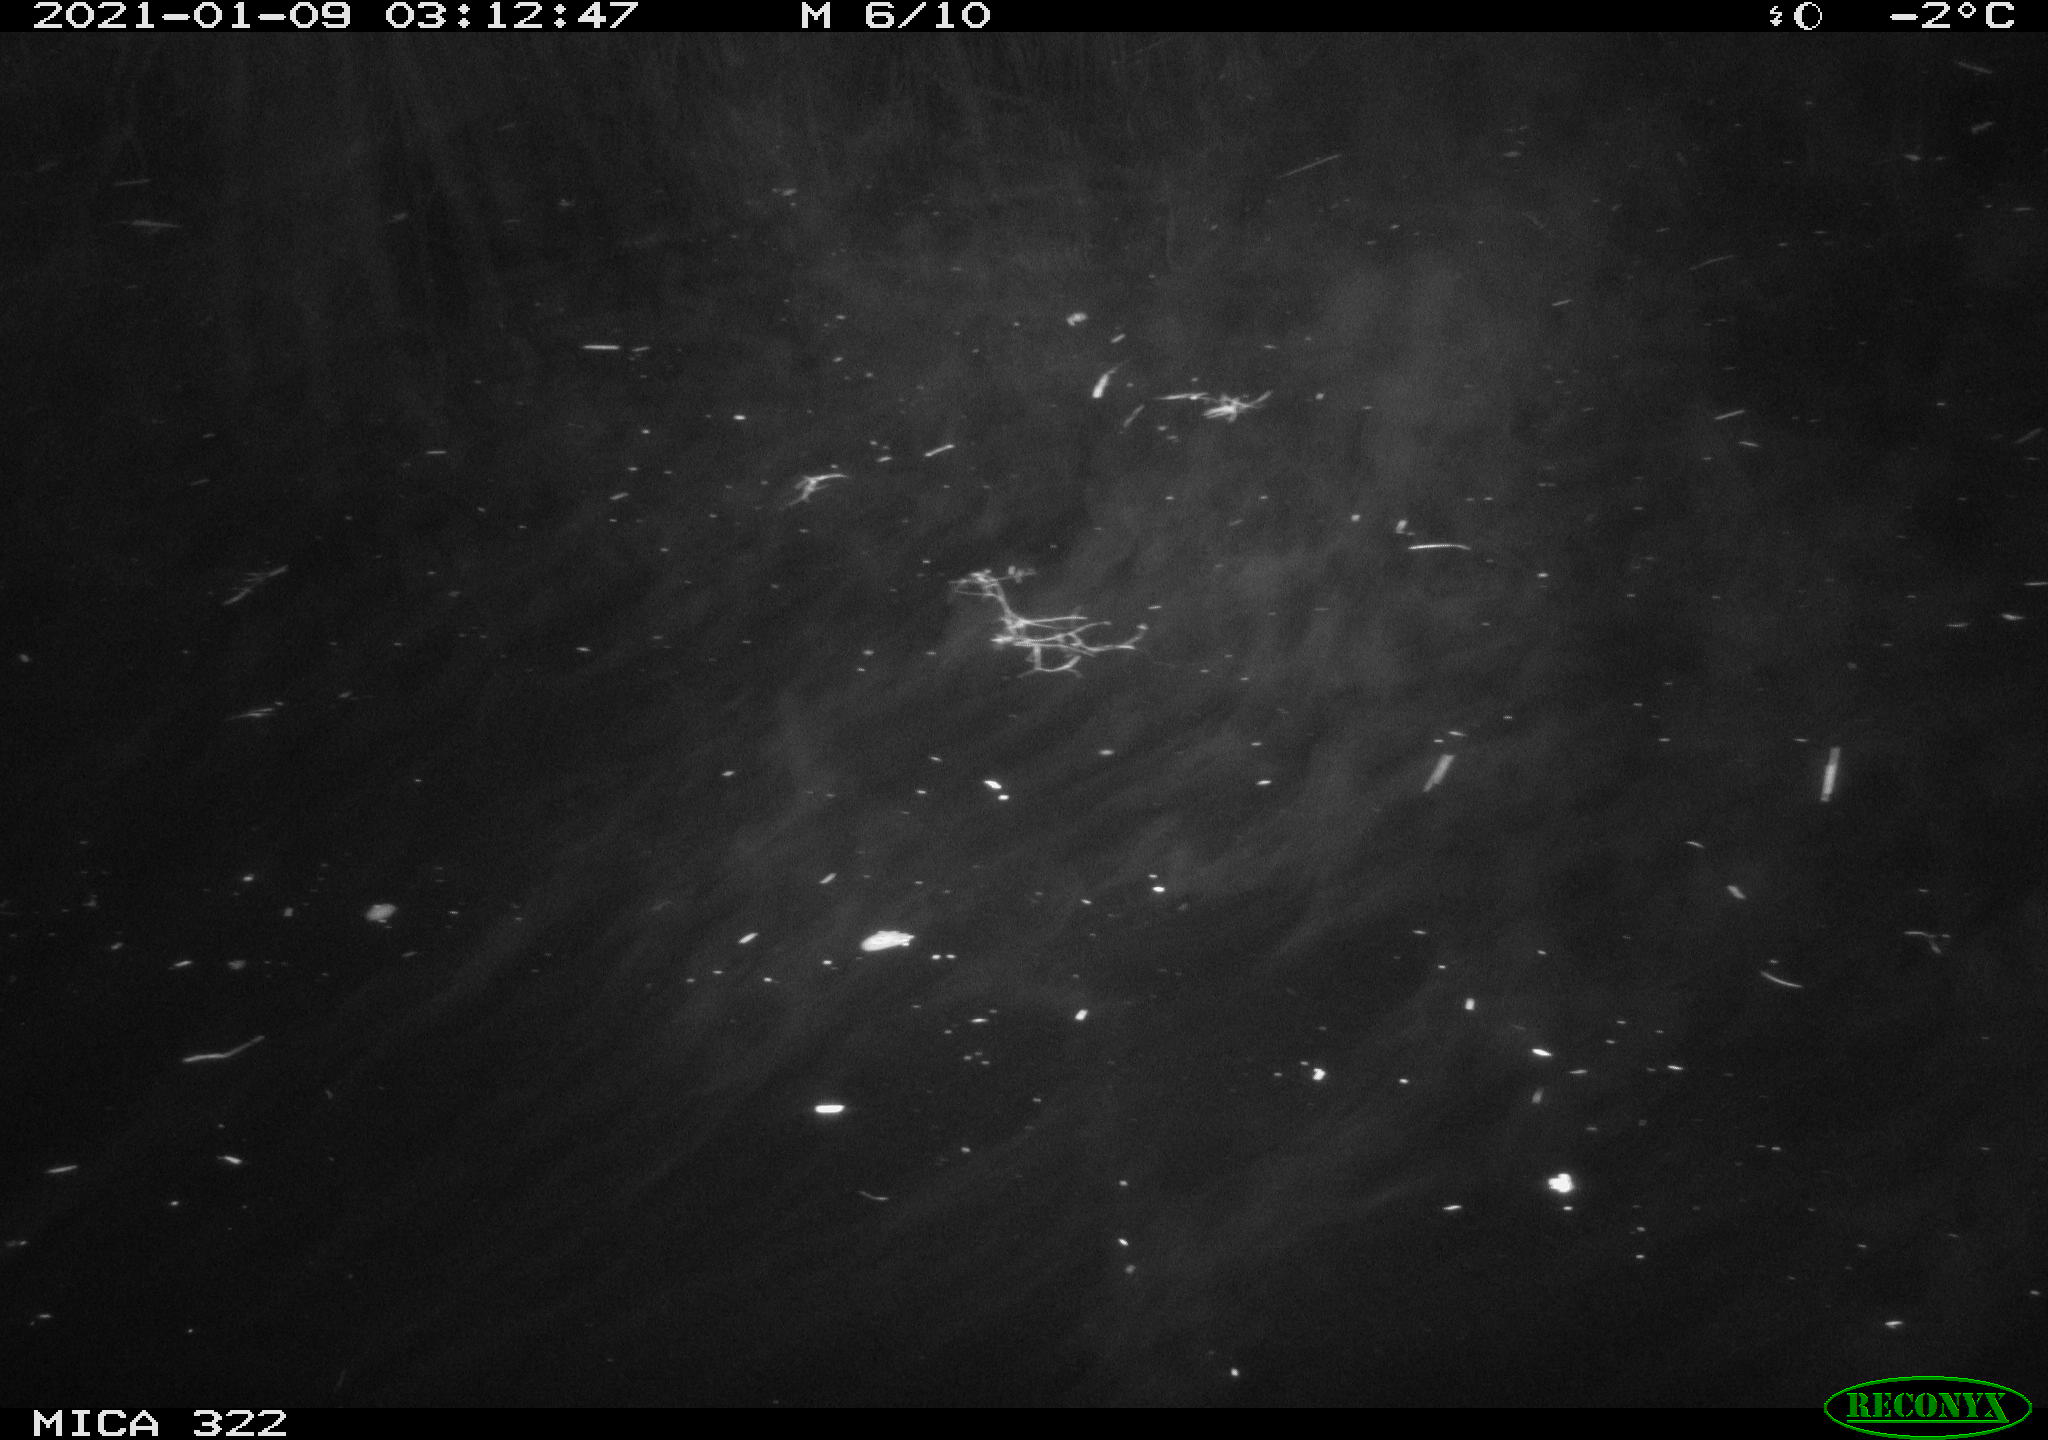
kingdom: Animalia
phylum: Chordata
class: Mammalia
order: Rodentia
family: Muridae
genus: Rattus
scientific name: Rattus norvegicus
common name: Brown rat
